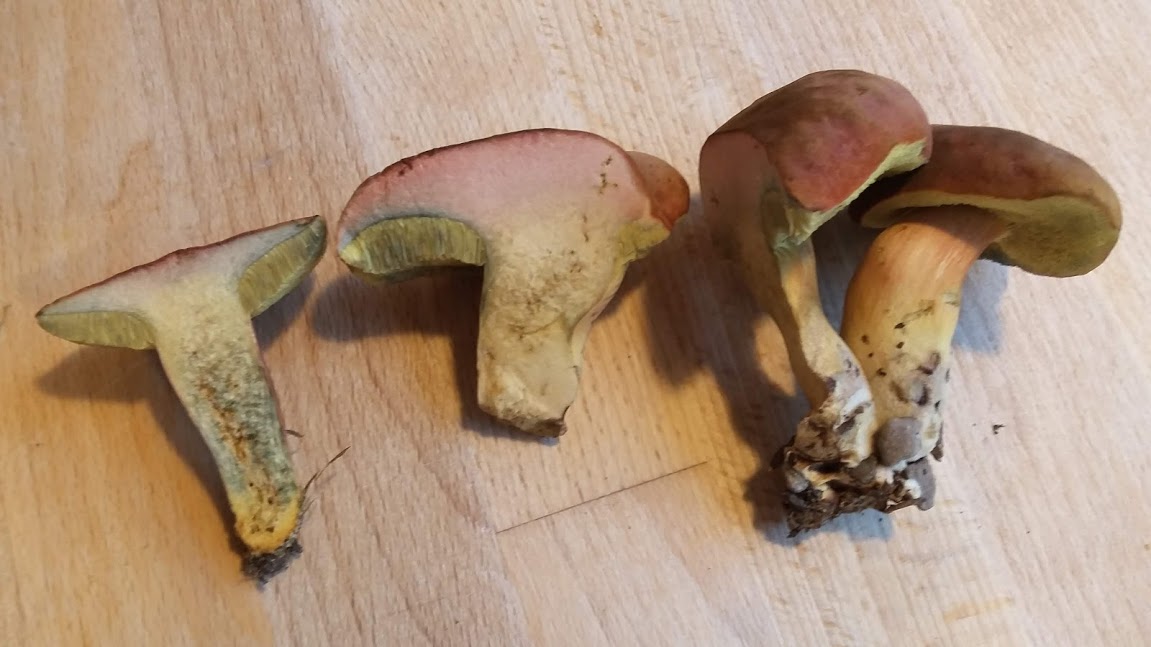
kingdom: Fungi
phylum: Basidiomycota
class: Agaricomycetes
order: Boletales
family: Boletaceae
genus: Hortiboletus
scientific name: Hortiboletus bubalinus
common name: aurora-rørhat
